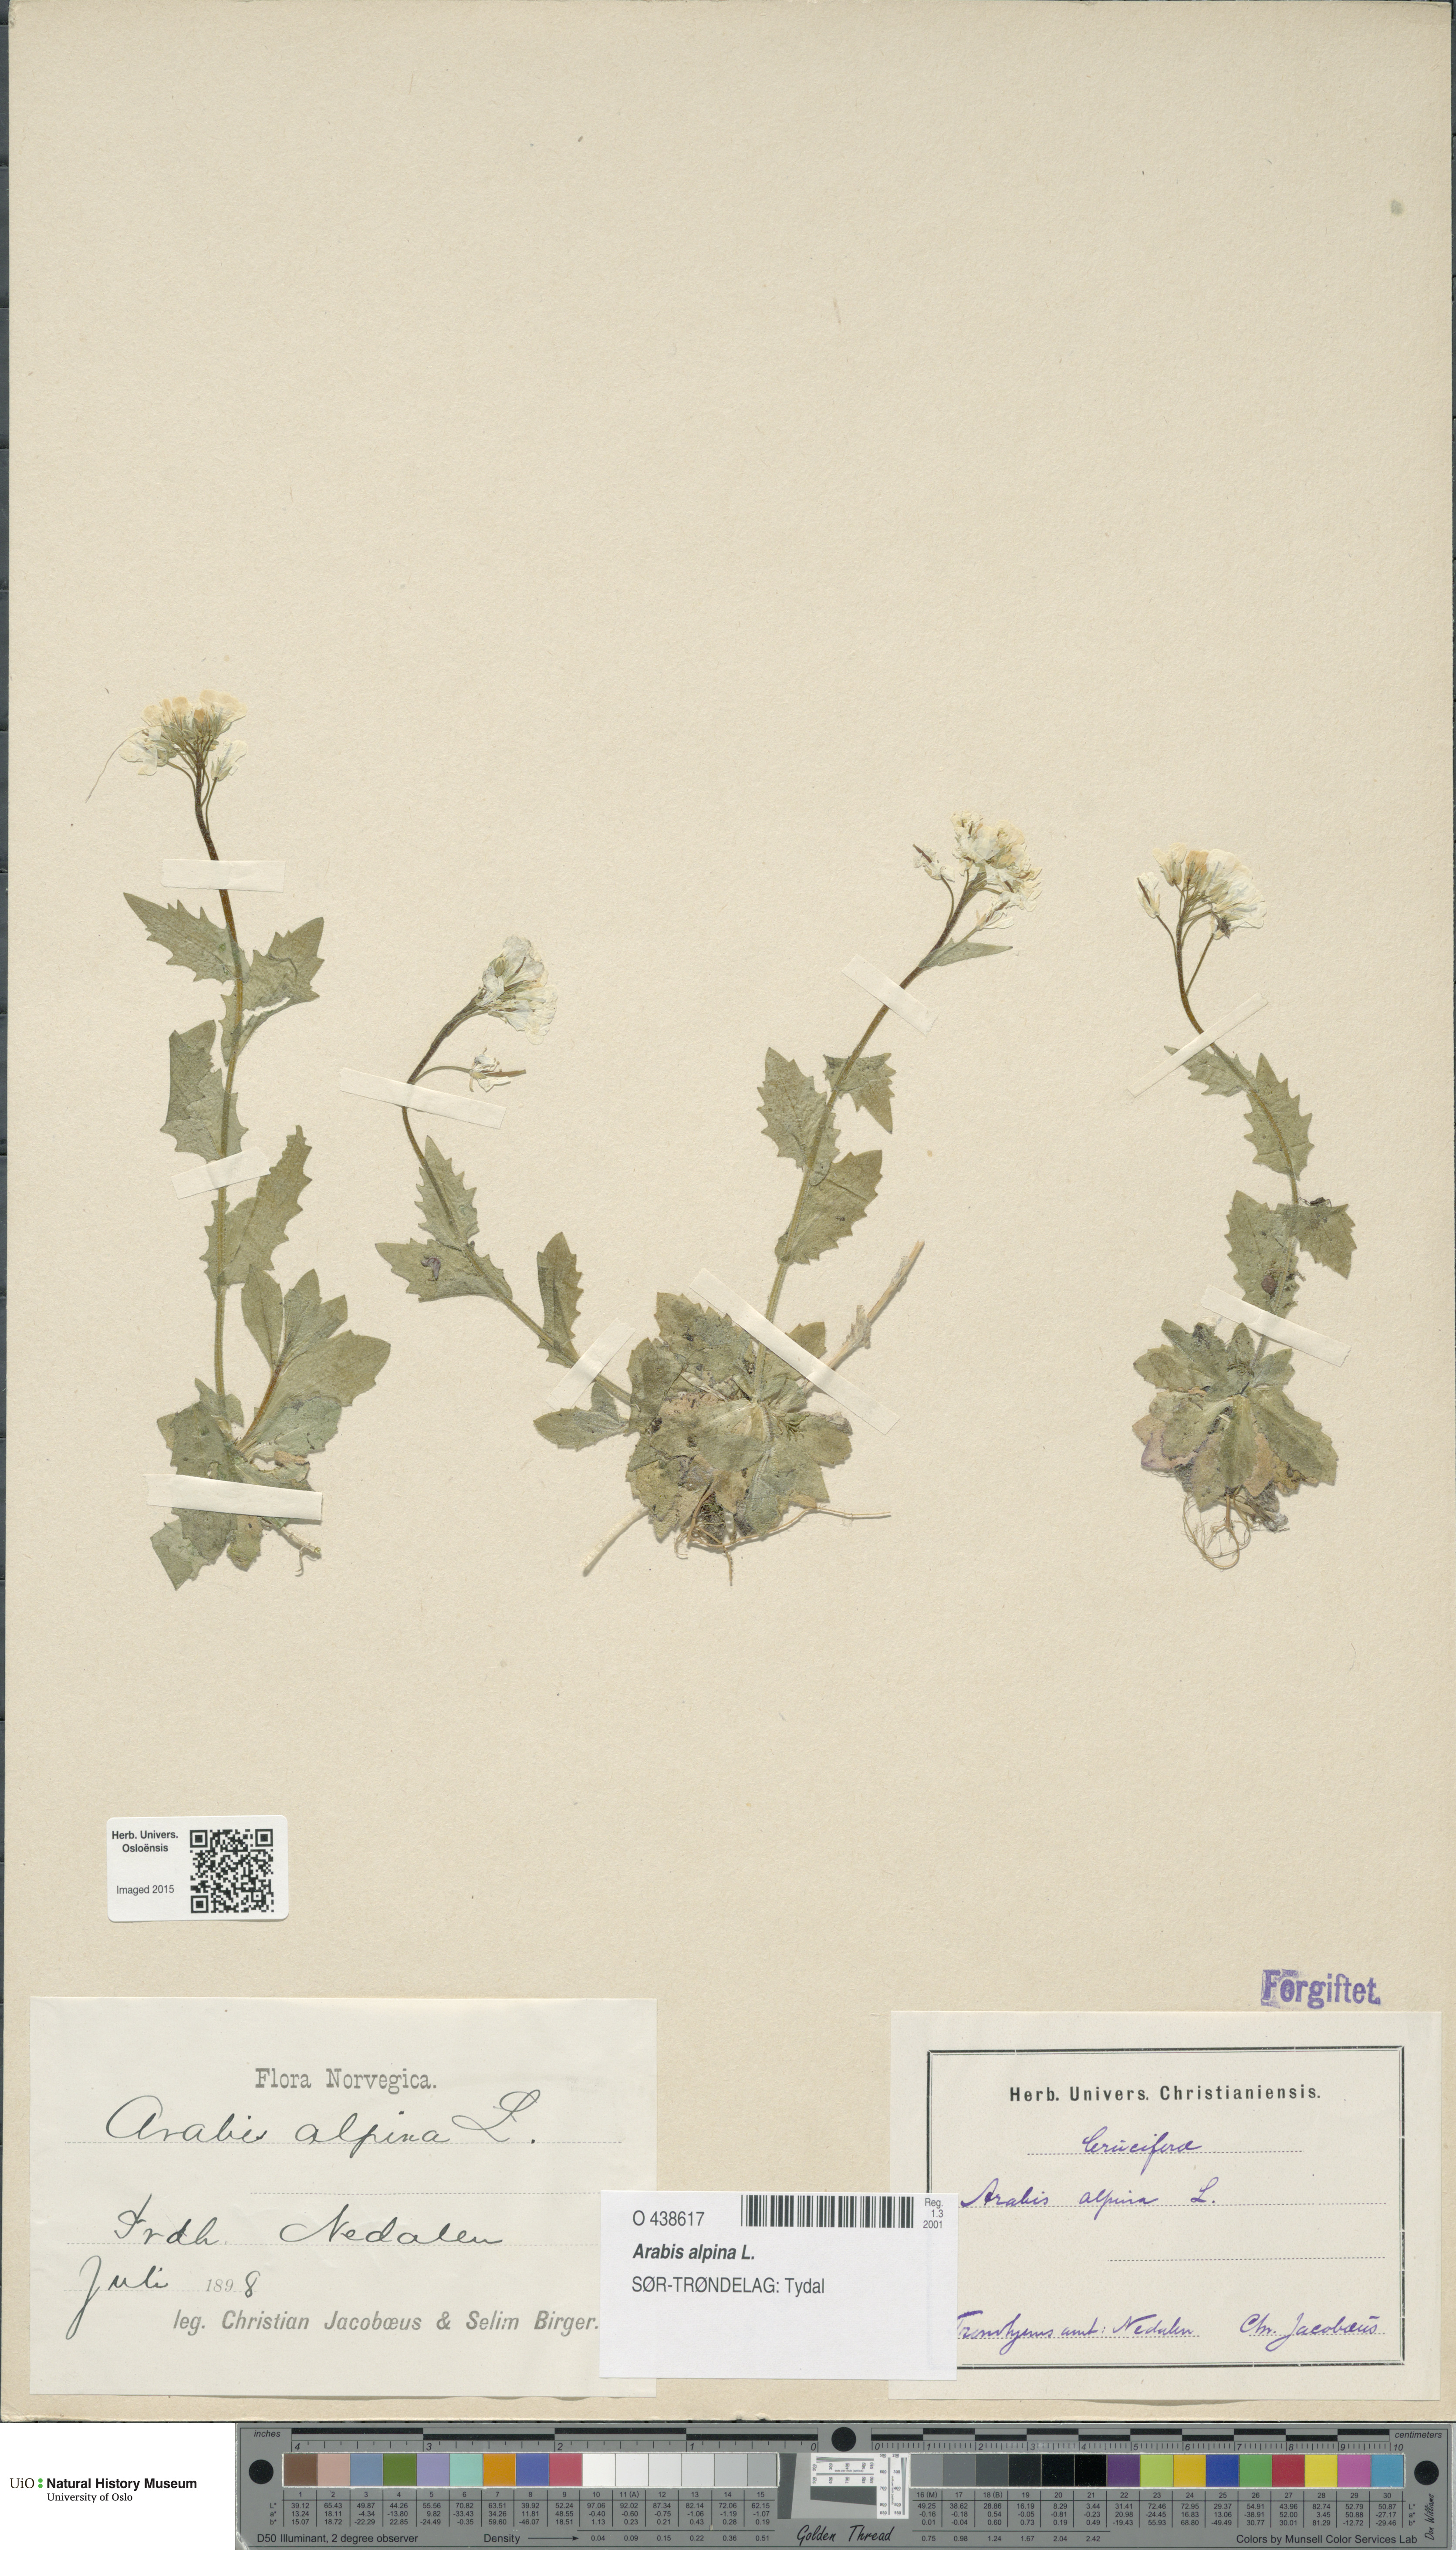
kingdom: Plantae
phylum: Tracheophyta
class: Magnoliopsida
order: Brassicales
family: Brassicaceae
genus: Arabis
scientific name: Arabis alpina
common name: Alpine rock-cress
